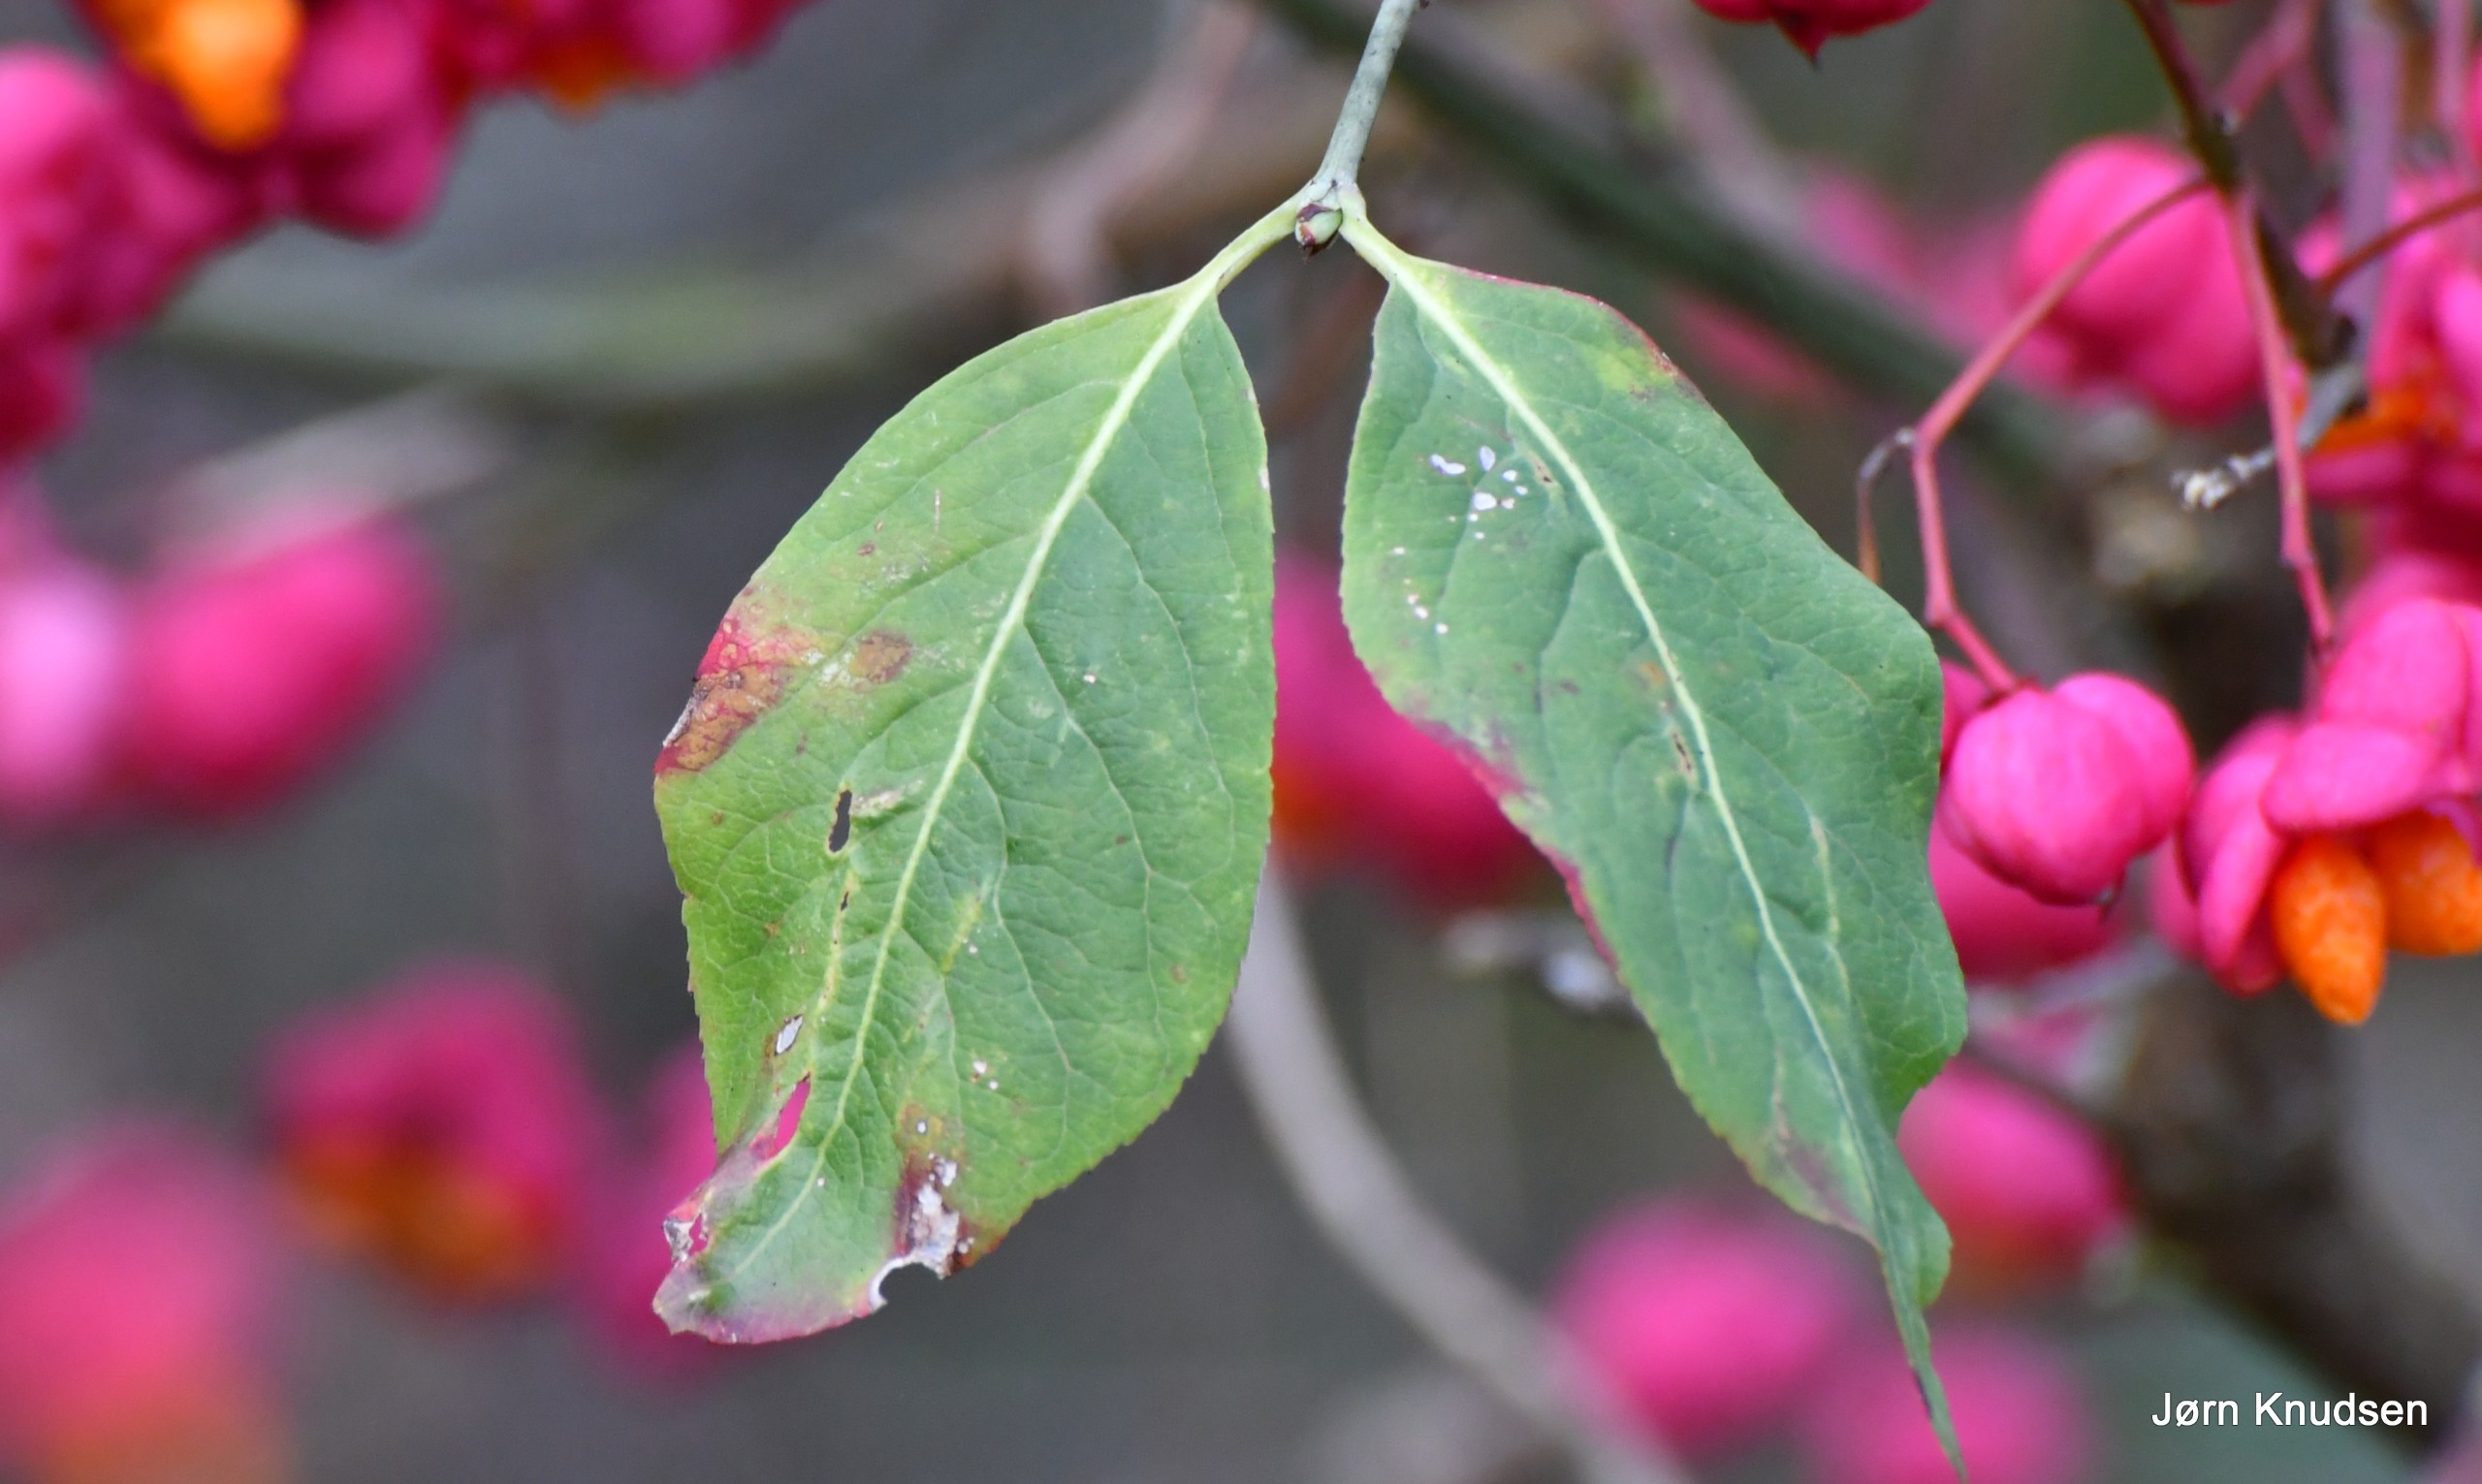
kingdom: Plantae
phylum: Tracheophyta
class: Magnoliopsida
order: Celastrales
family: Celastraceae
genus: Euonymus
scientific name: Euonymus europaeus
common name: Benved
